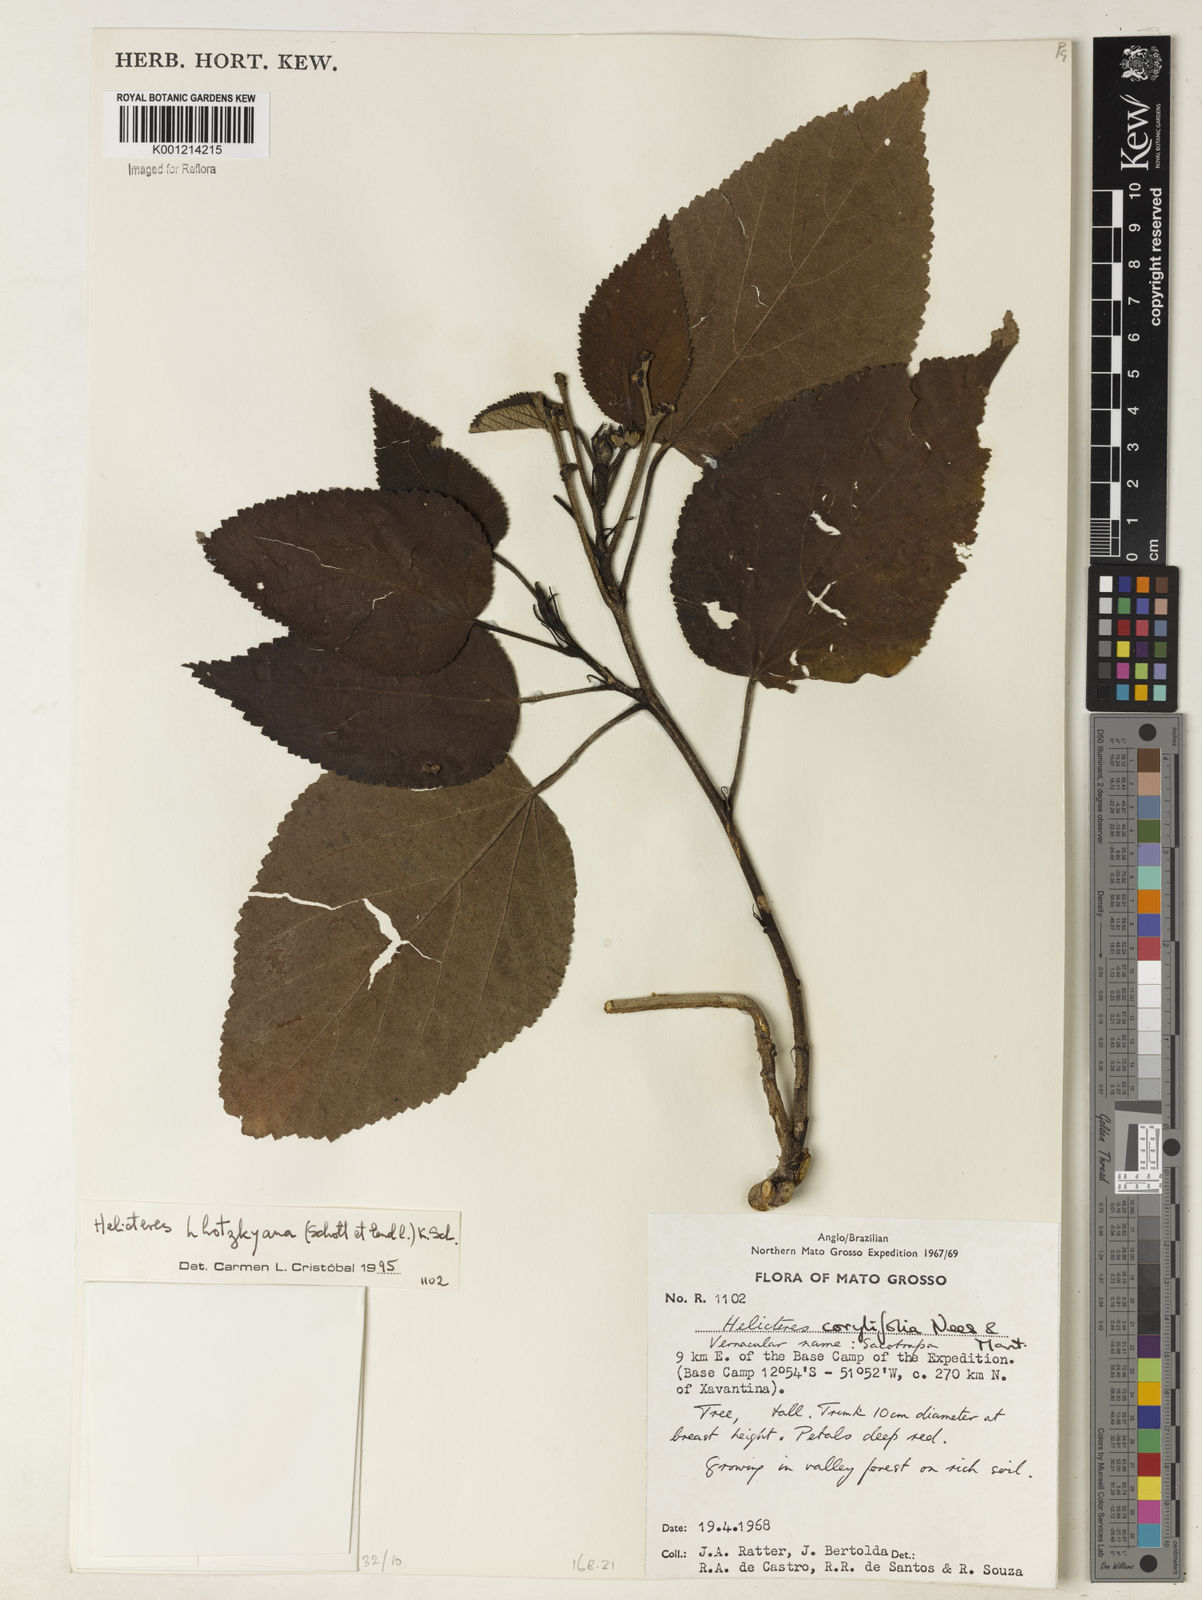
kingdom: Plantae
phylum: Tracheophyta
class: Magnoliopsida
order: Malvales
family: Malvaceae
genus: Helicteres
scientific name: Helicteres lhotzkyana
